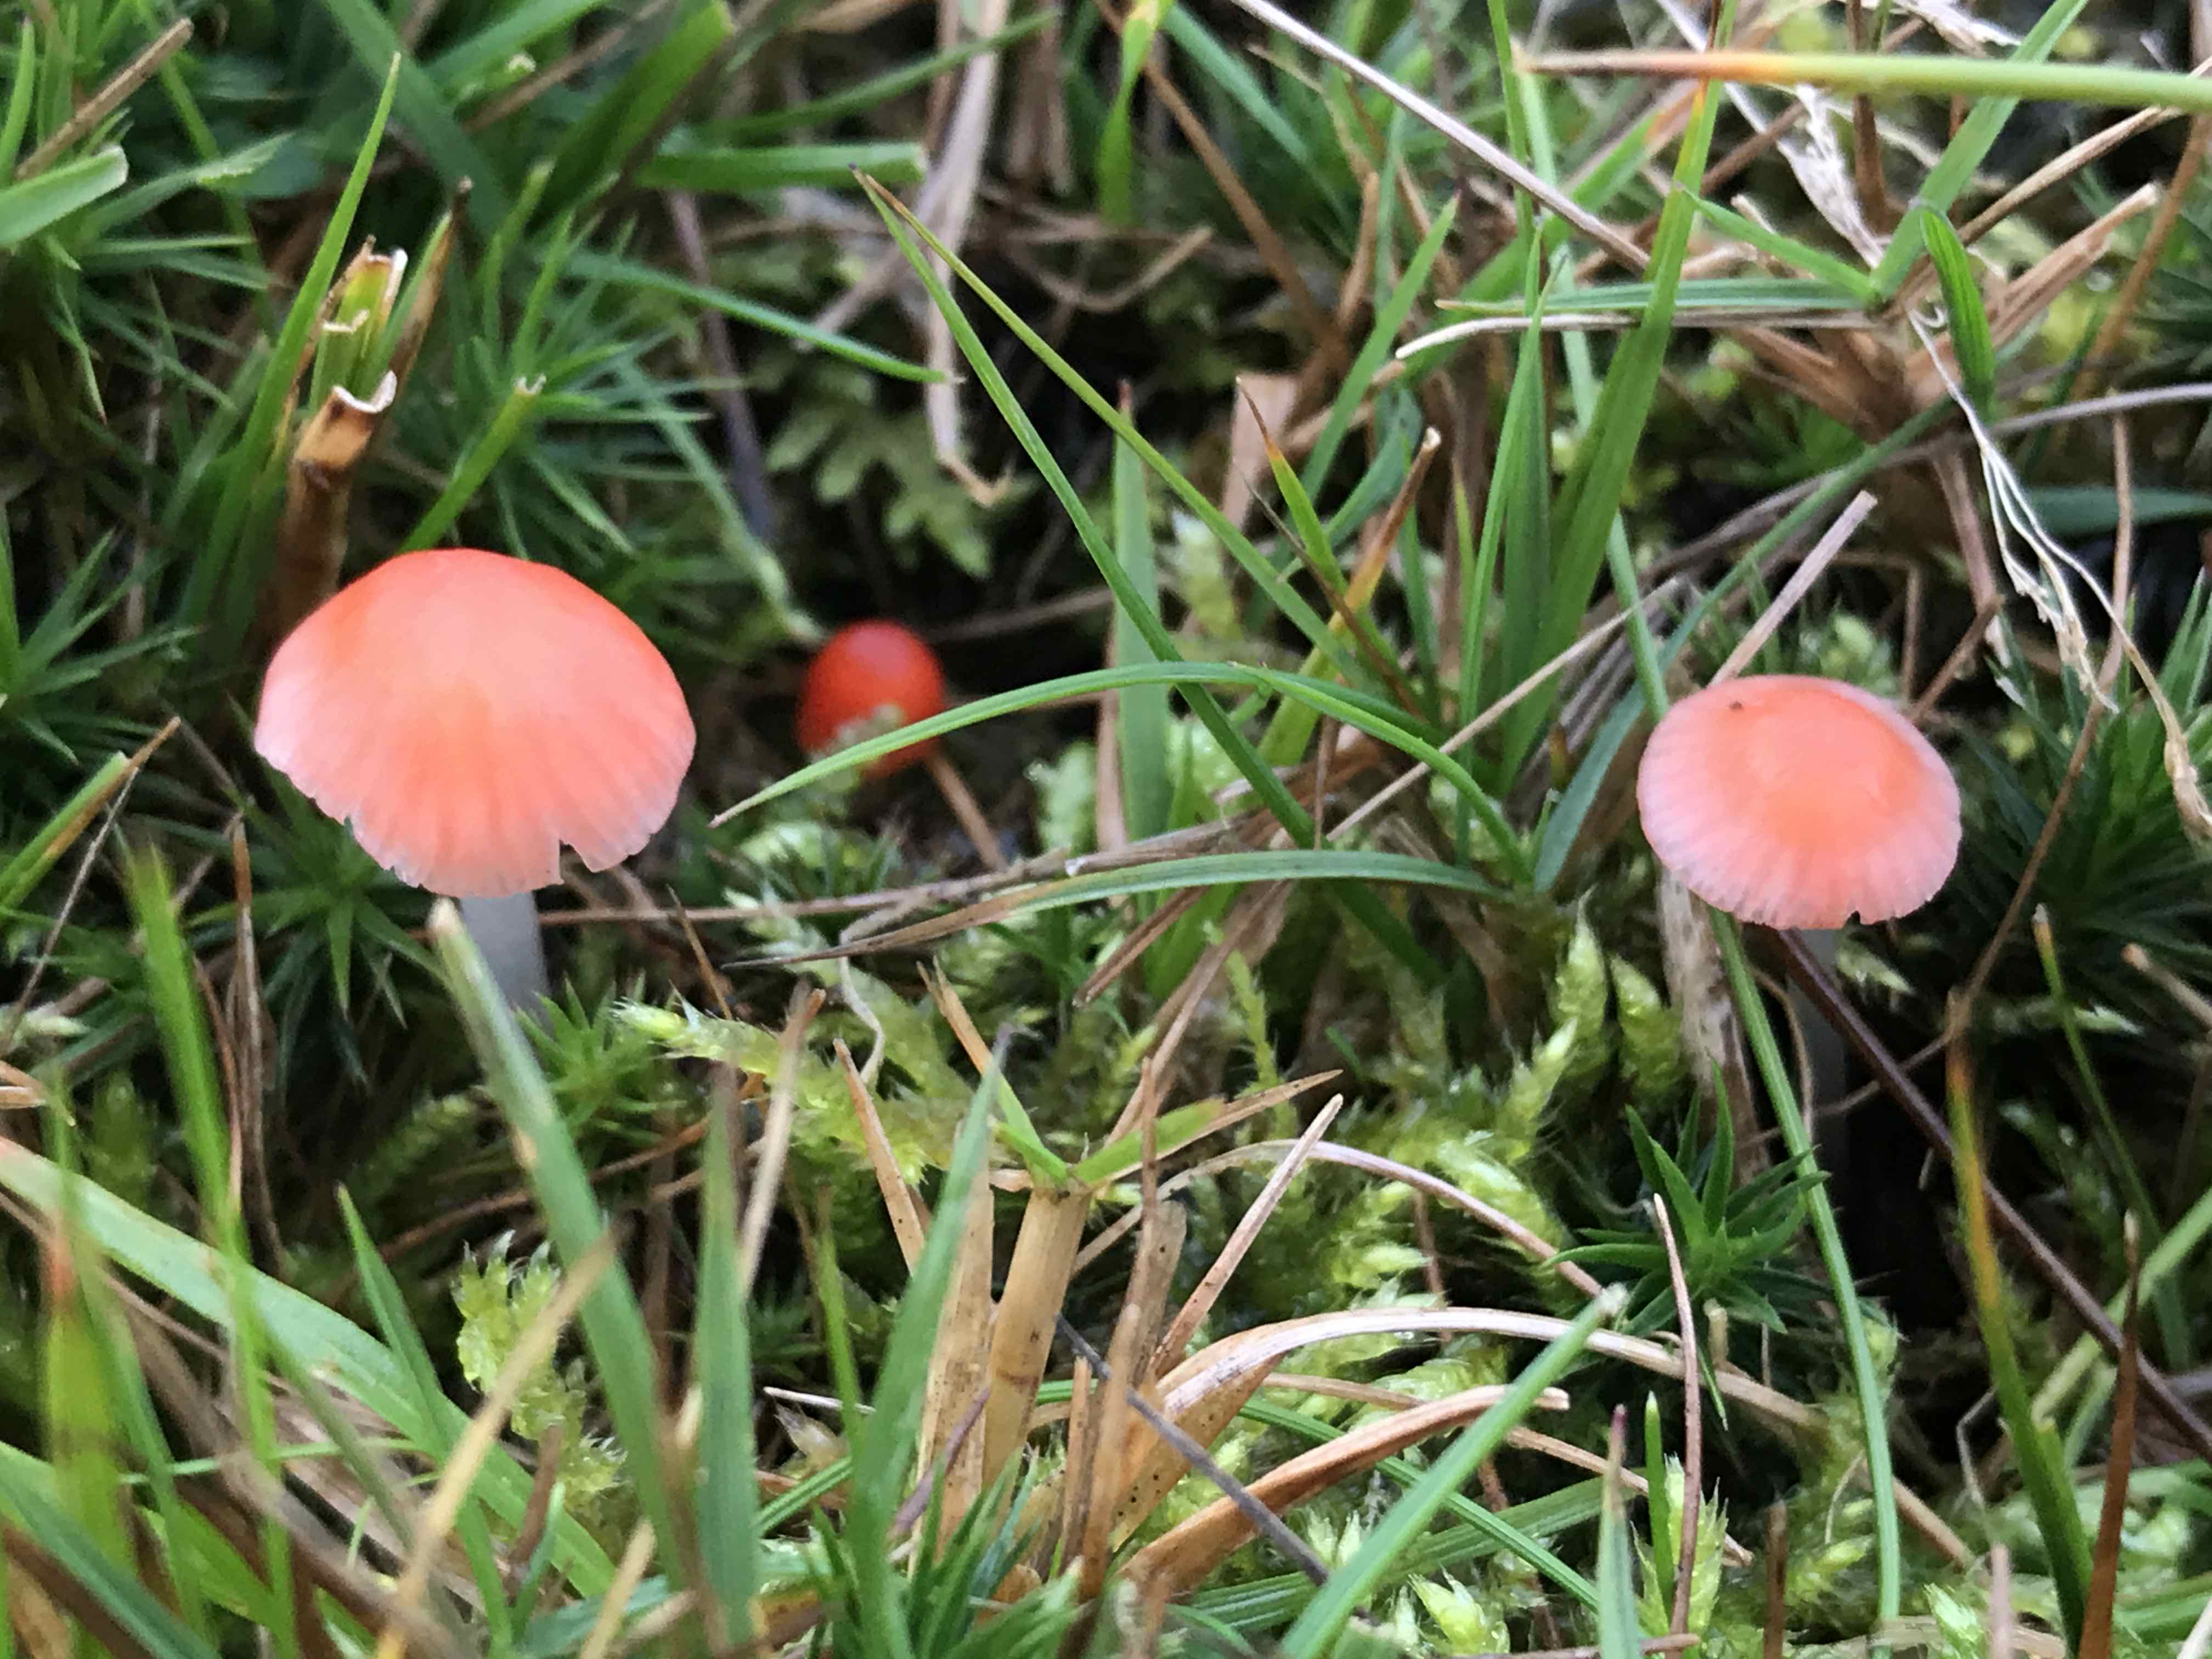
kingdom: Fungi
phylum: Basidiomycota
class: Agaricomycetes
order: Agaricales
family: Mycenaceae
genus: Atheniella
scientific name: Atheniella adonis
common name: rønnerød huesvamp
